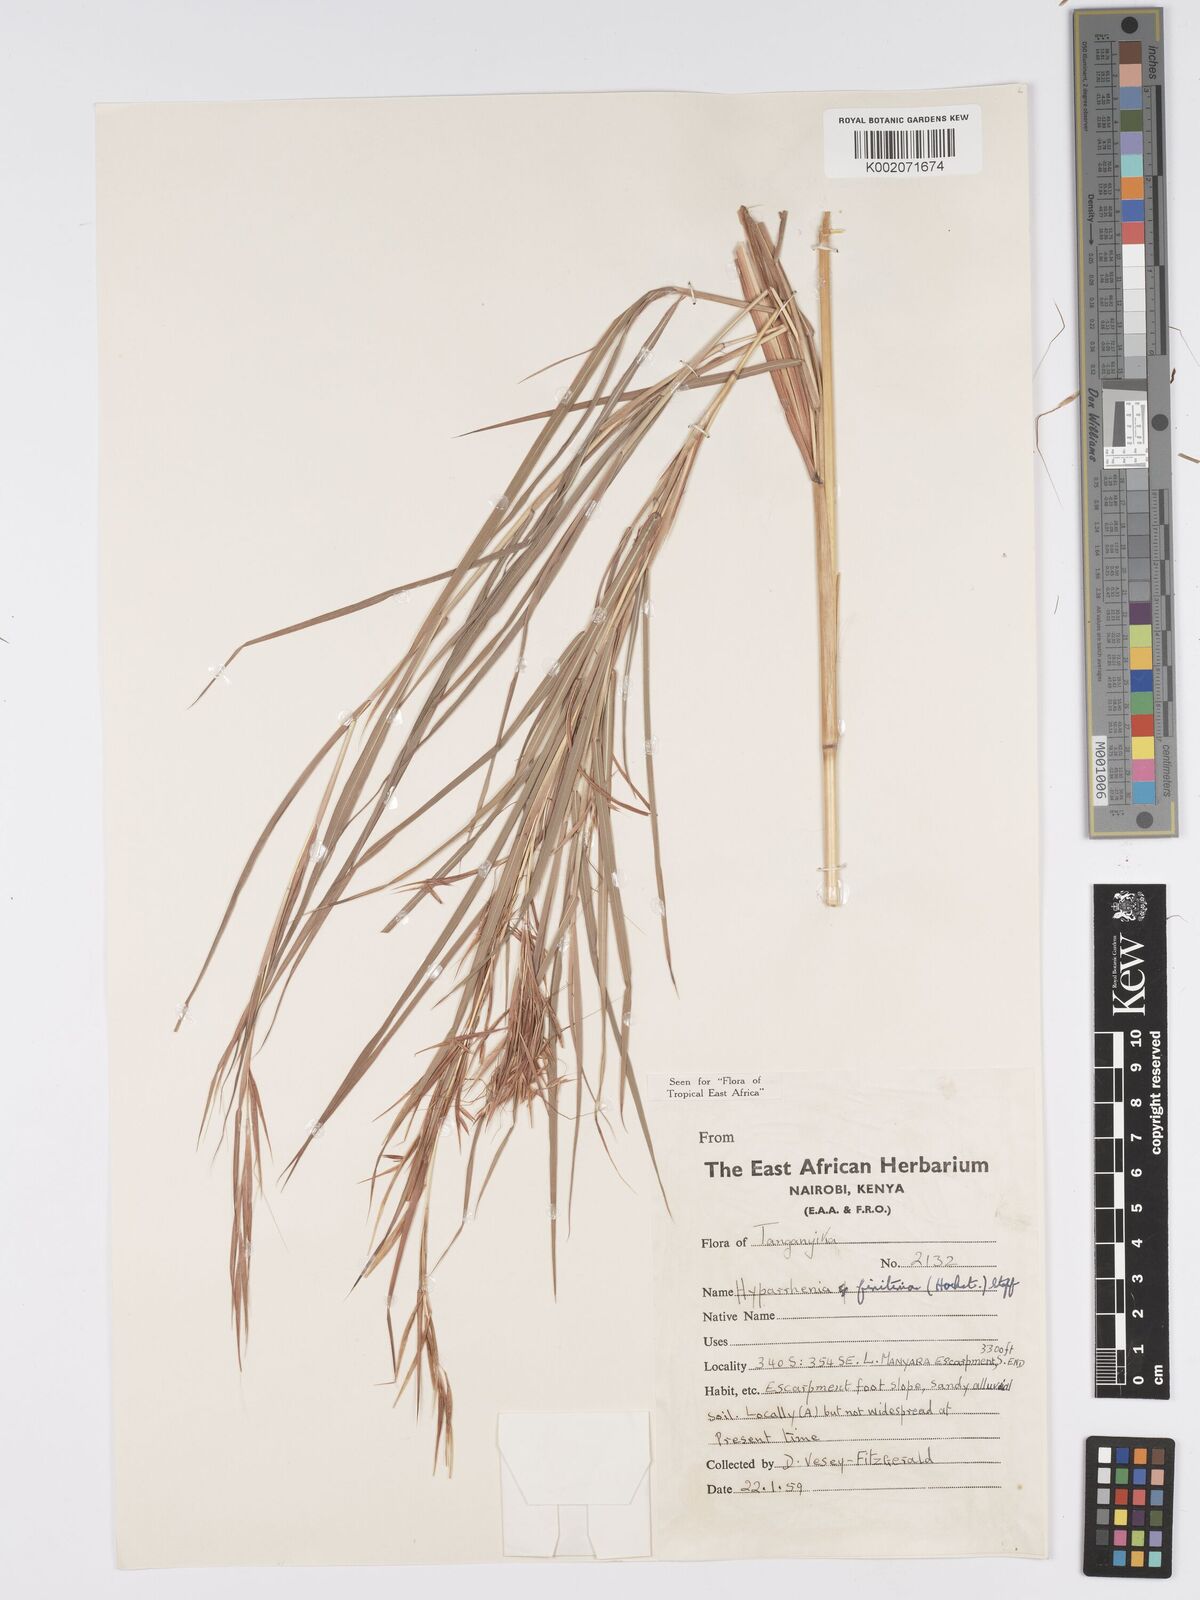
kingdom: Plantae
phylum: Tracheophyta
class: Liliopsida
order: Poales
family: Poaceae
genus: Hyparrhenia
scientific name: Hyparrhenia finitima
